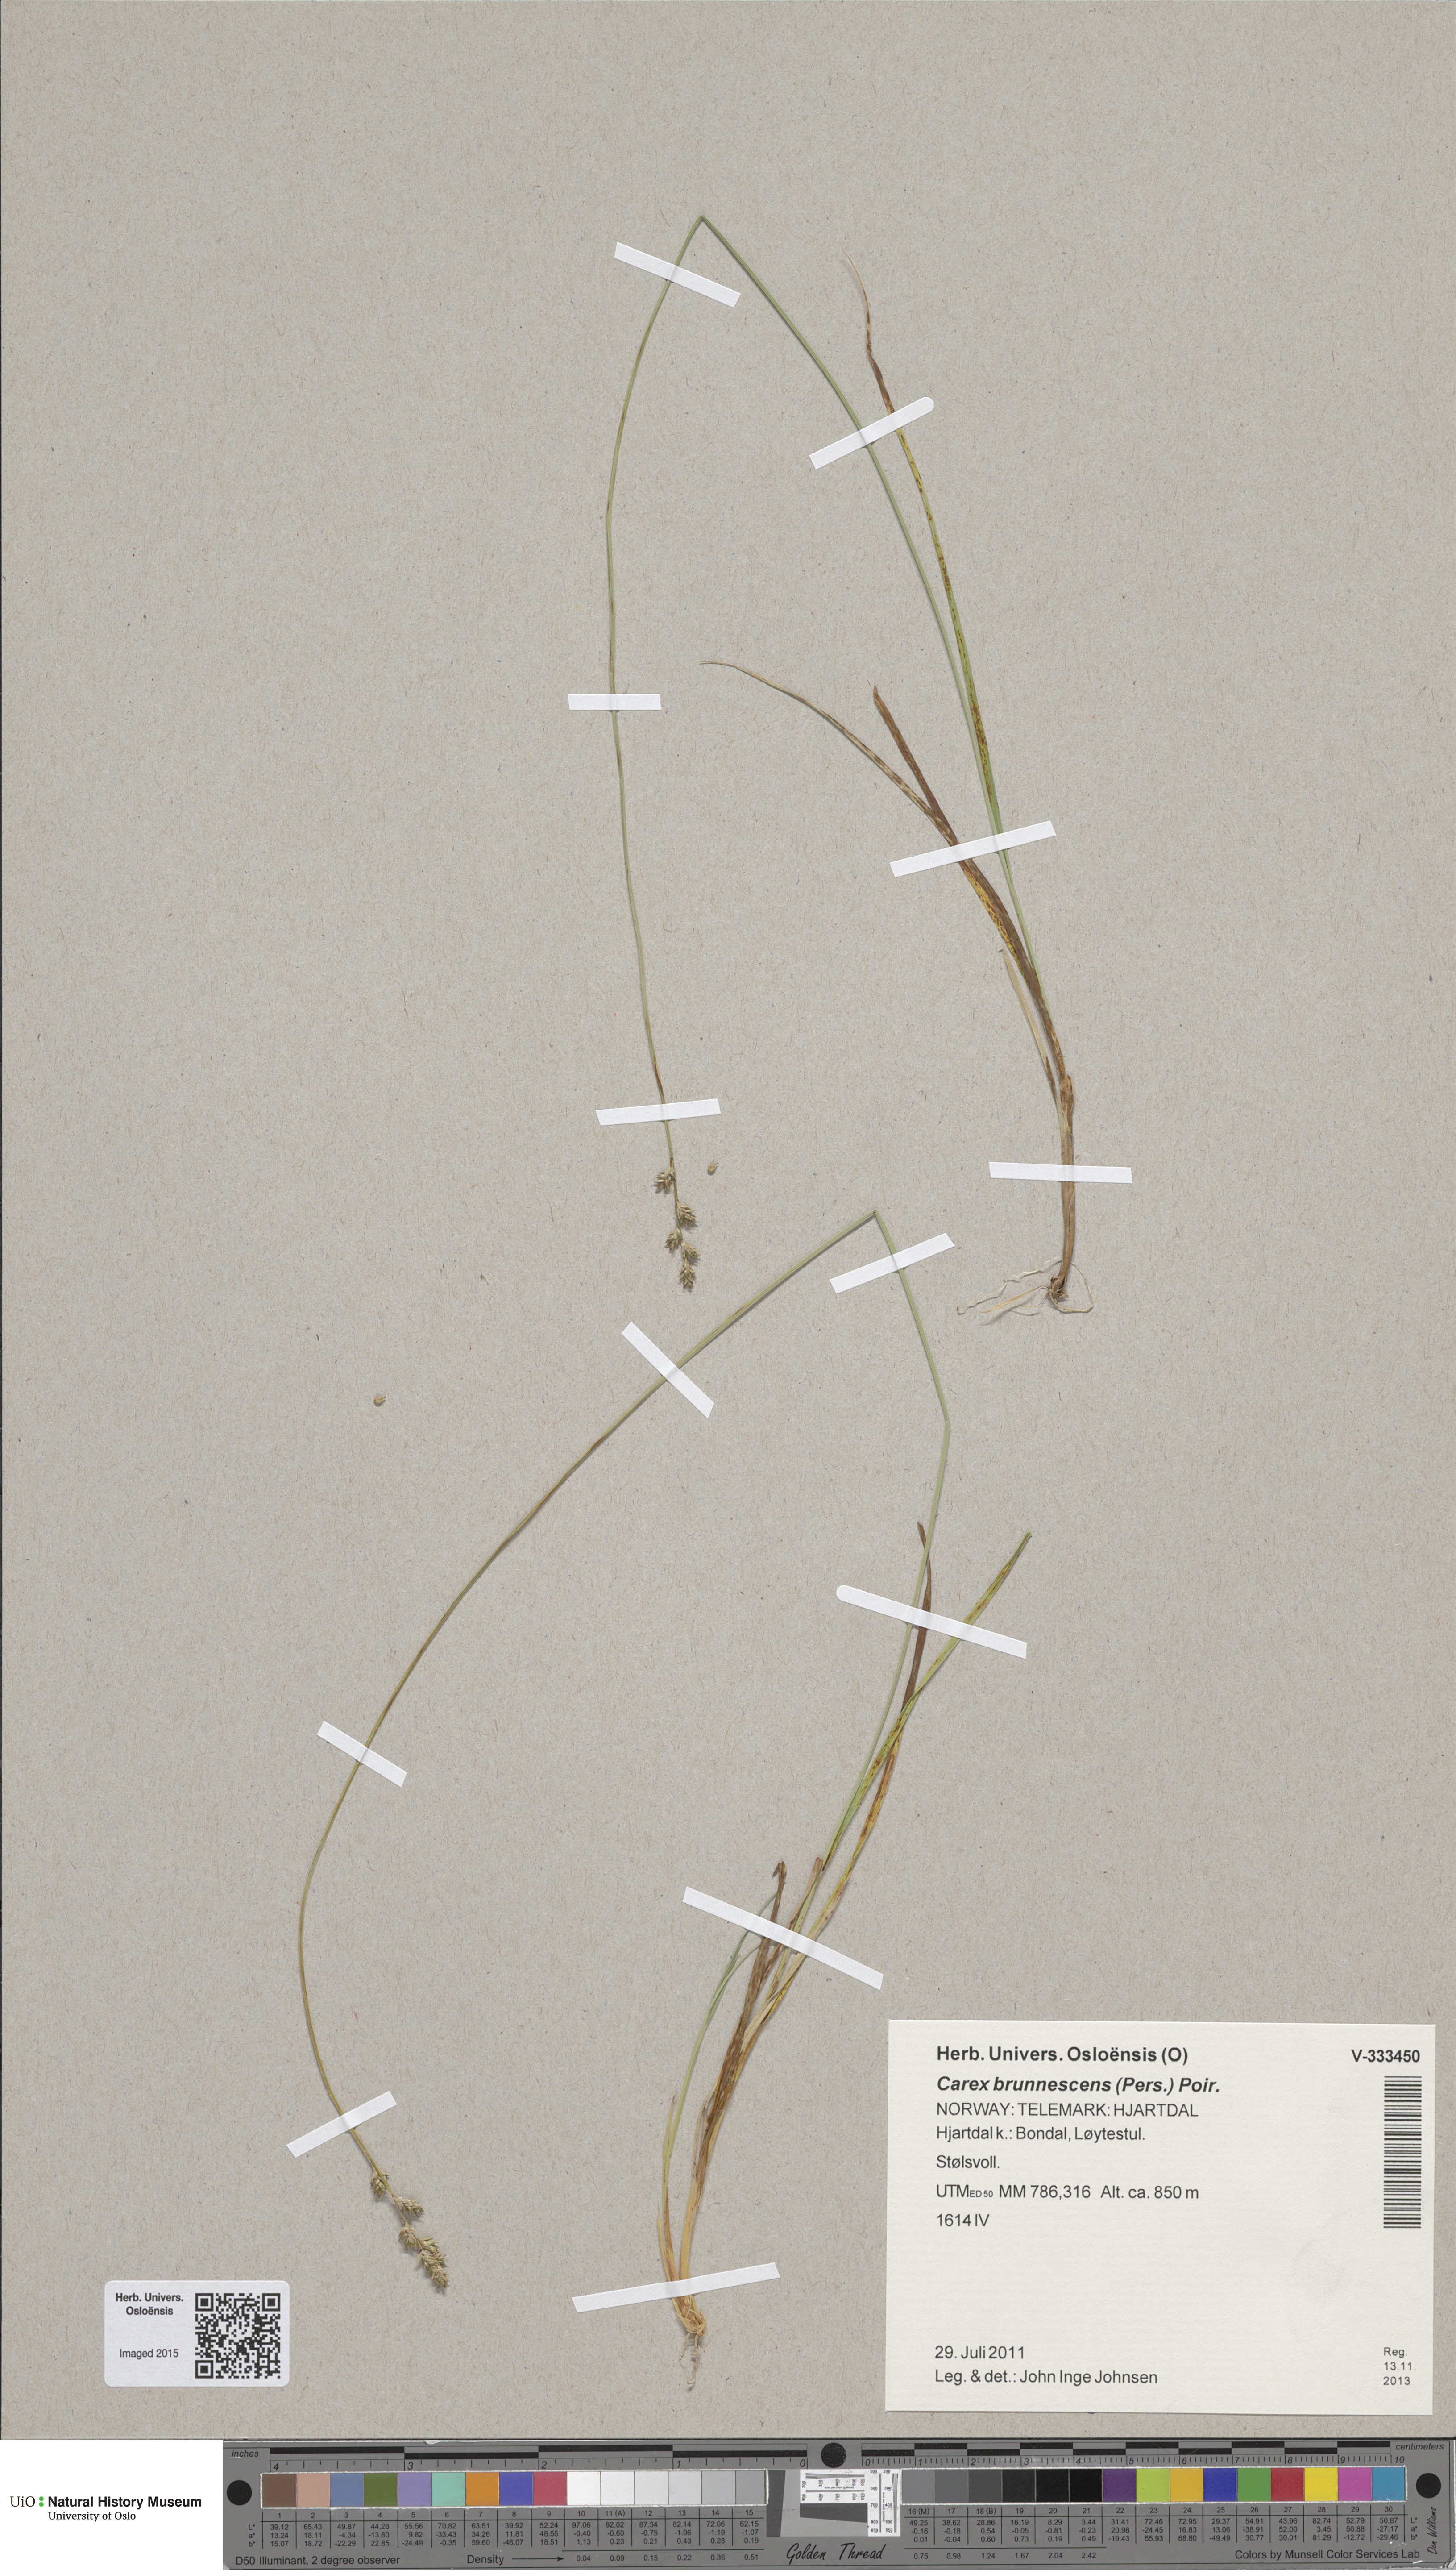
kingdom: Plantae
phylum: Tracheophyta
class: Liliopsida
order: Poales
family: Cyperaceae
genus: Carex
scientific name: Carex brunnescens
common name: Brown sedge
